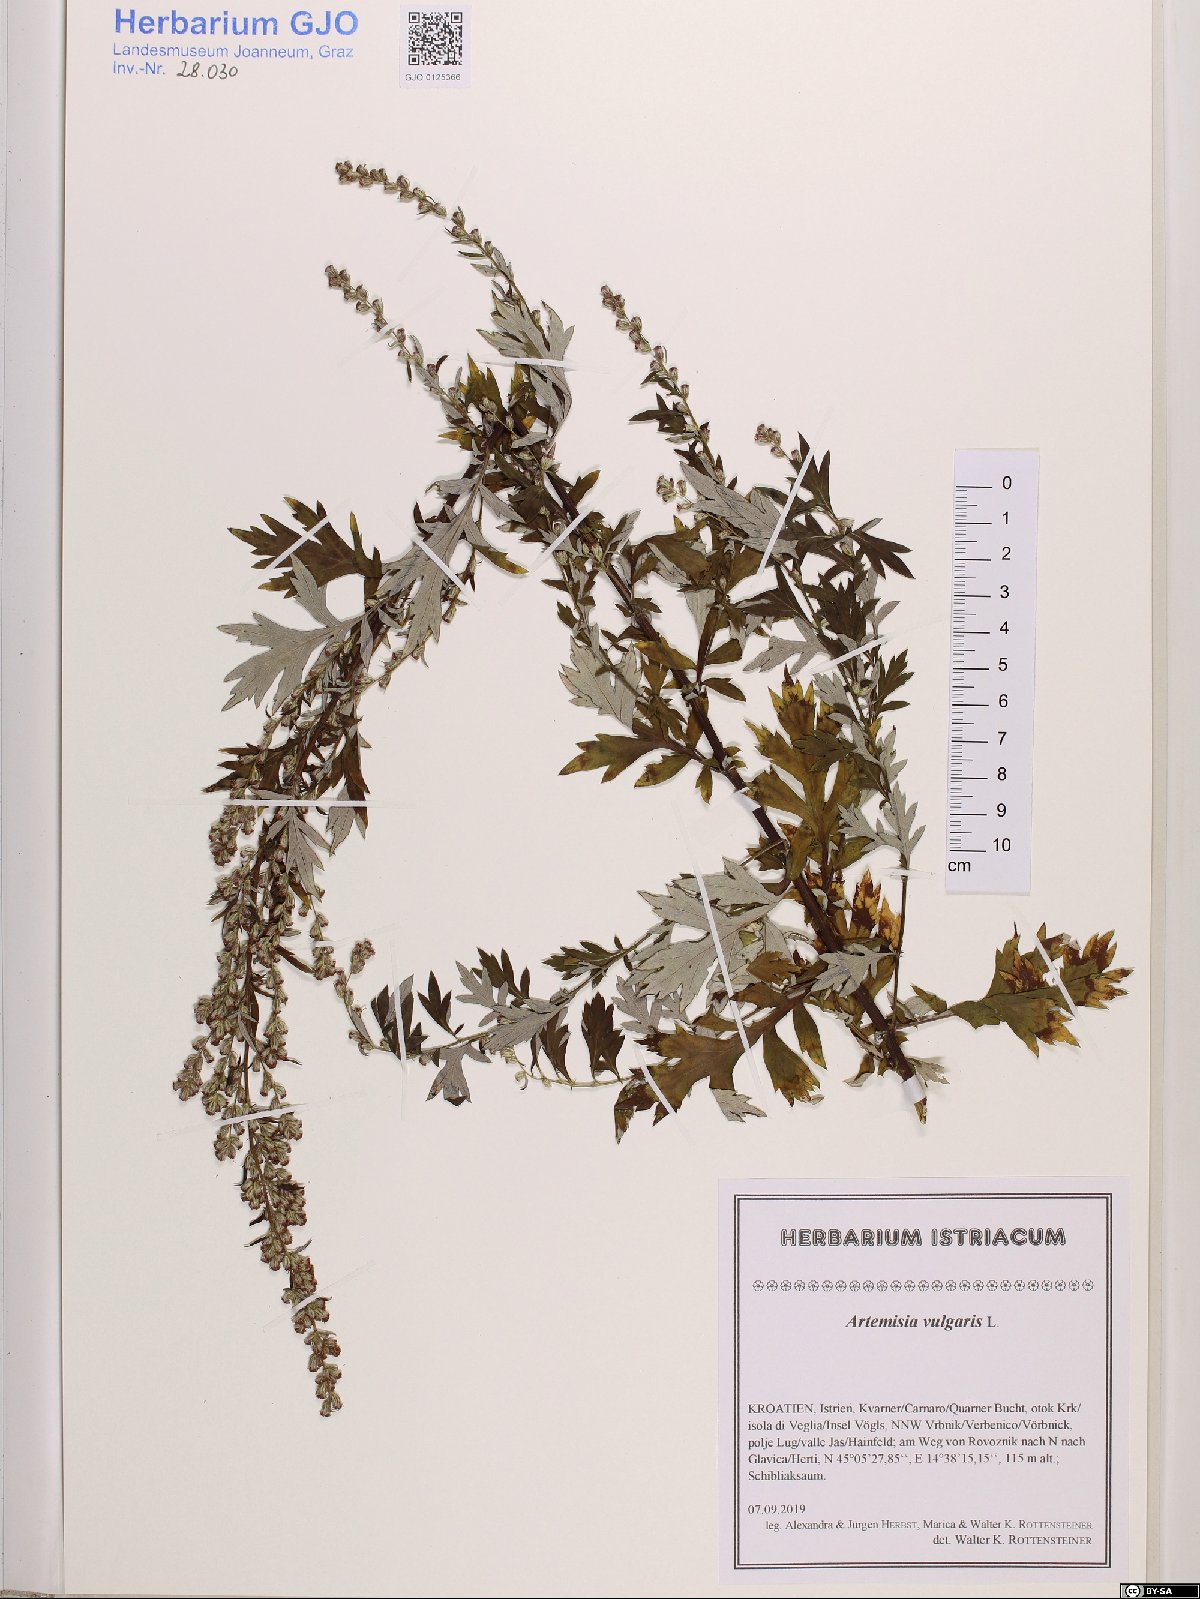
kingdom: Plantae
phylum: Tracheophyta
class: Magnoliopsida
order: Asterales
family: Asteraceae
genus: Artemisia
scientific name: Artemisia vulgaris
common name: Mugwort
